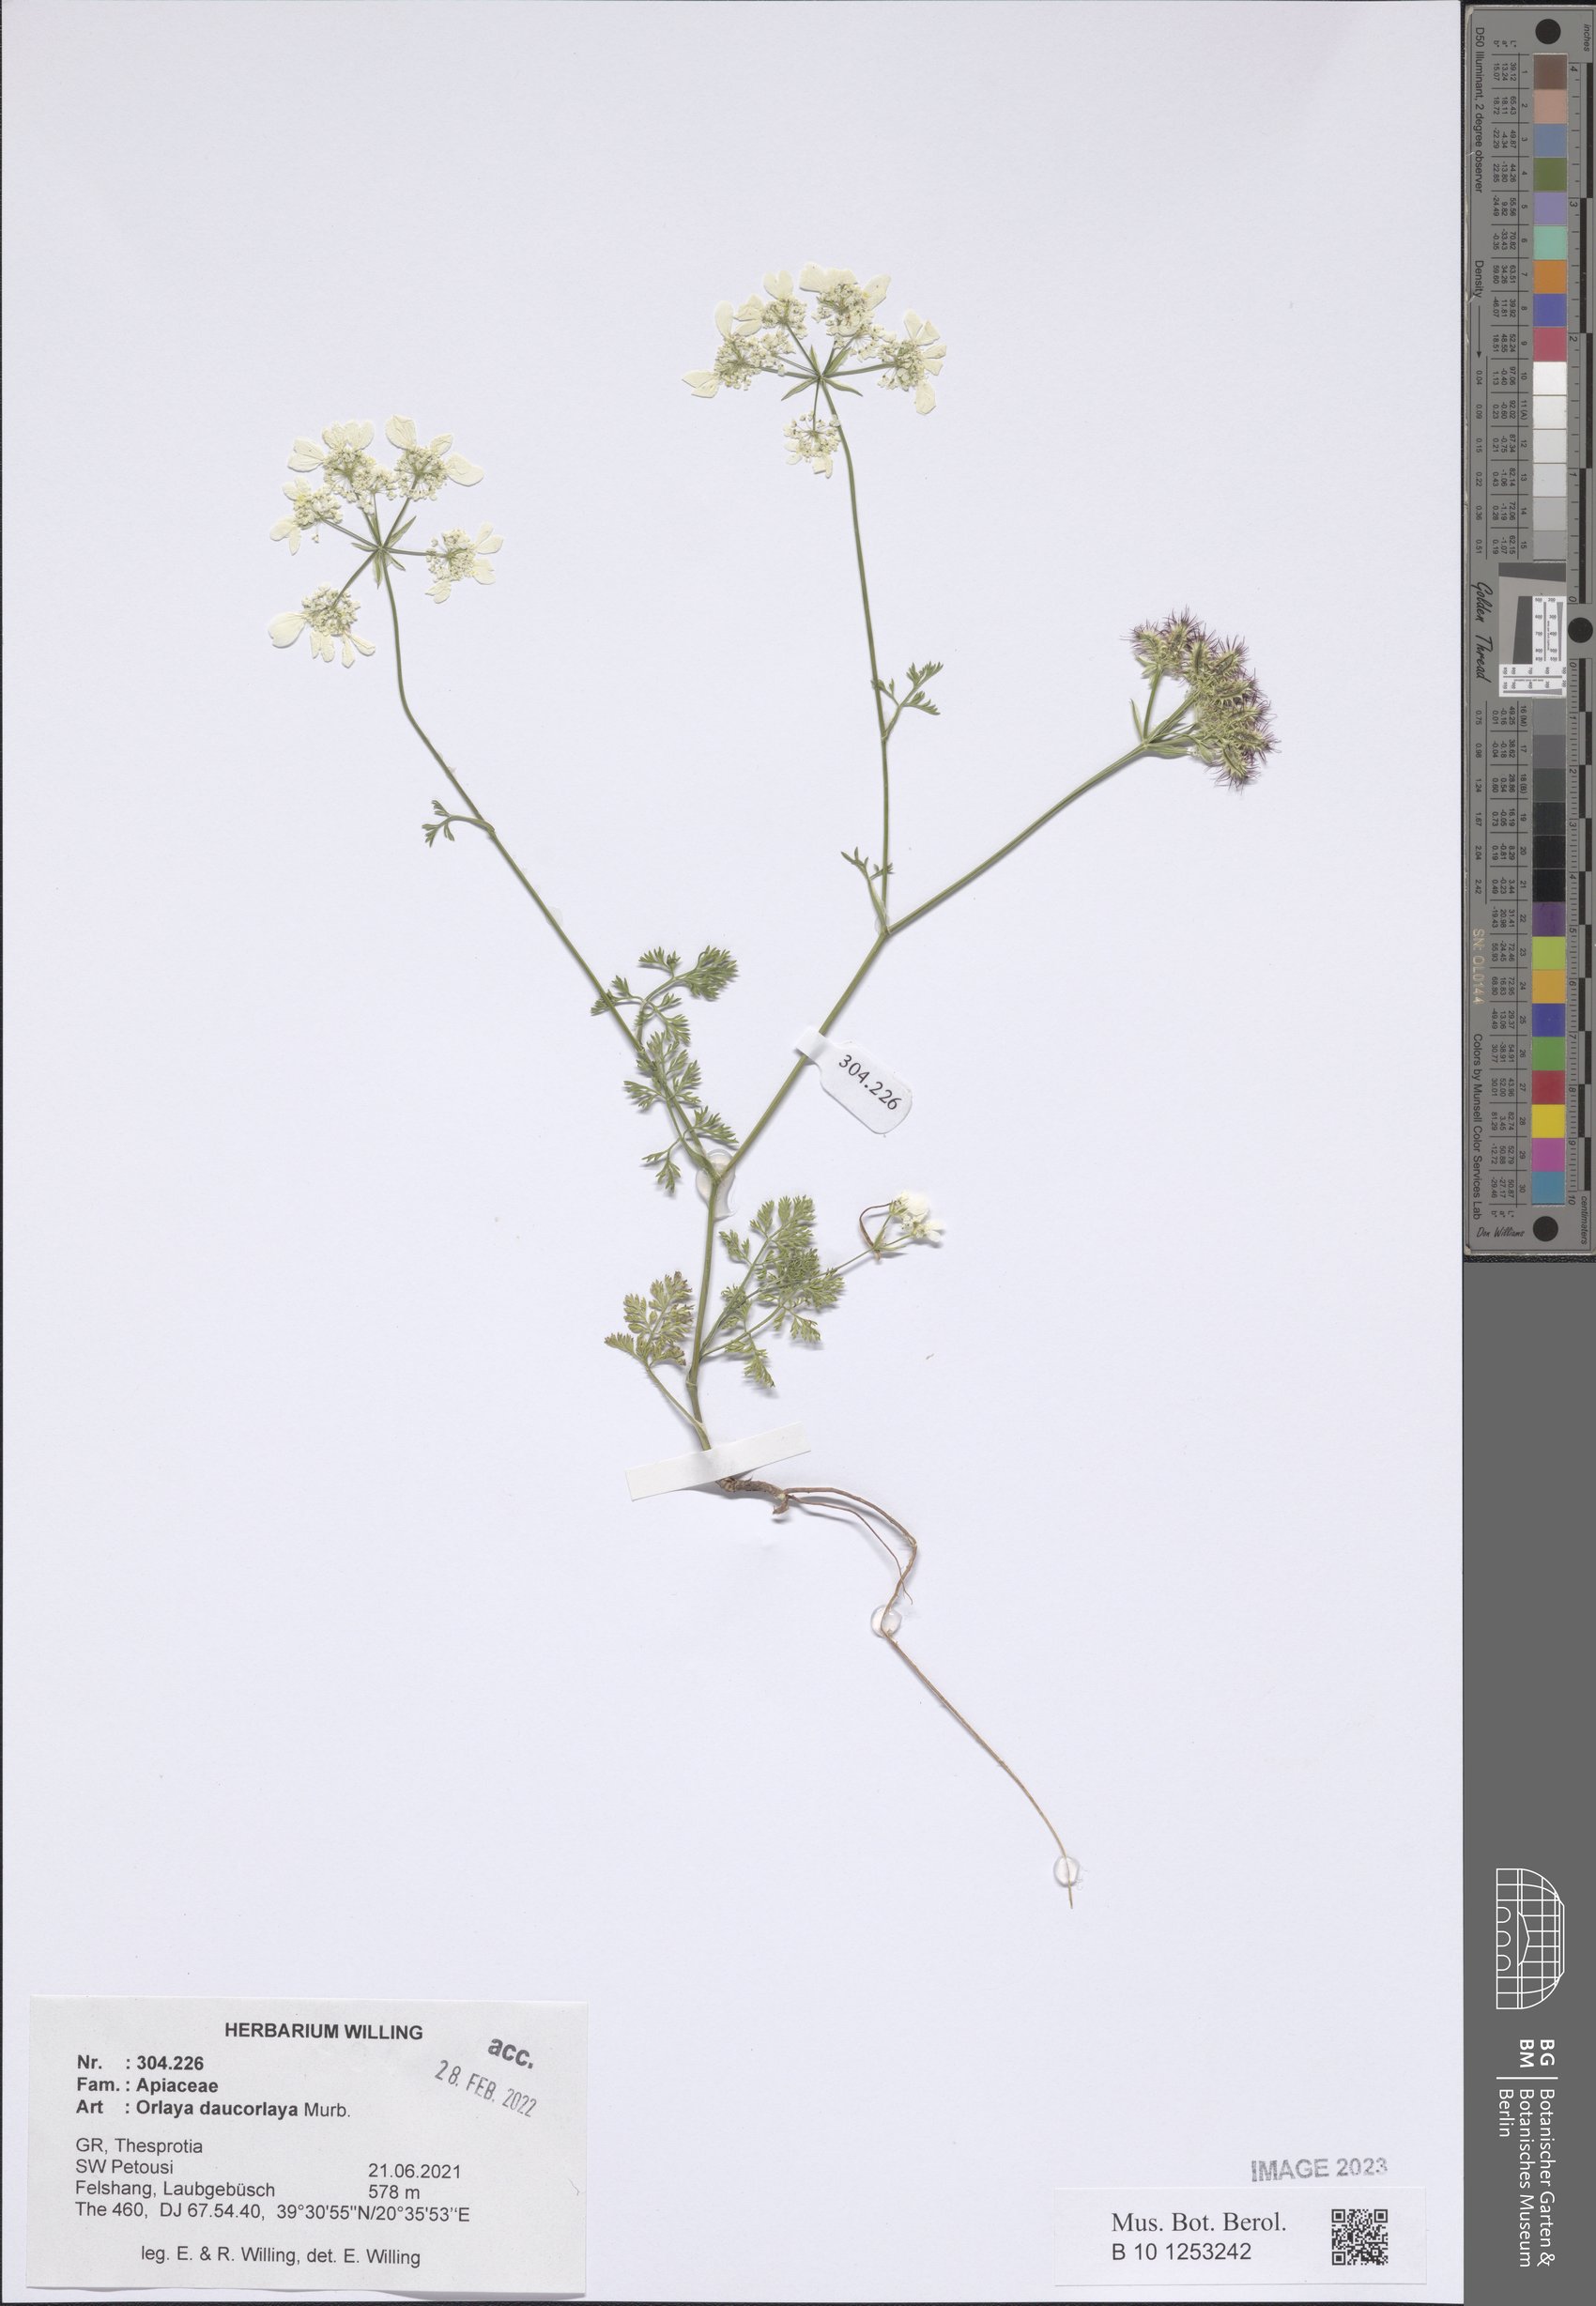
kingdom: Plantae
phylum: Tracheophyta
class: Magnoliopsida
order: Apiales
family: Apiaceae
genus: Orlaya
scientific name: Orlaya daucorlaya
